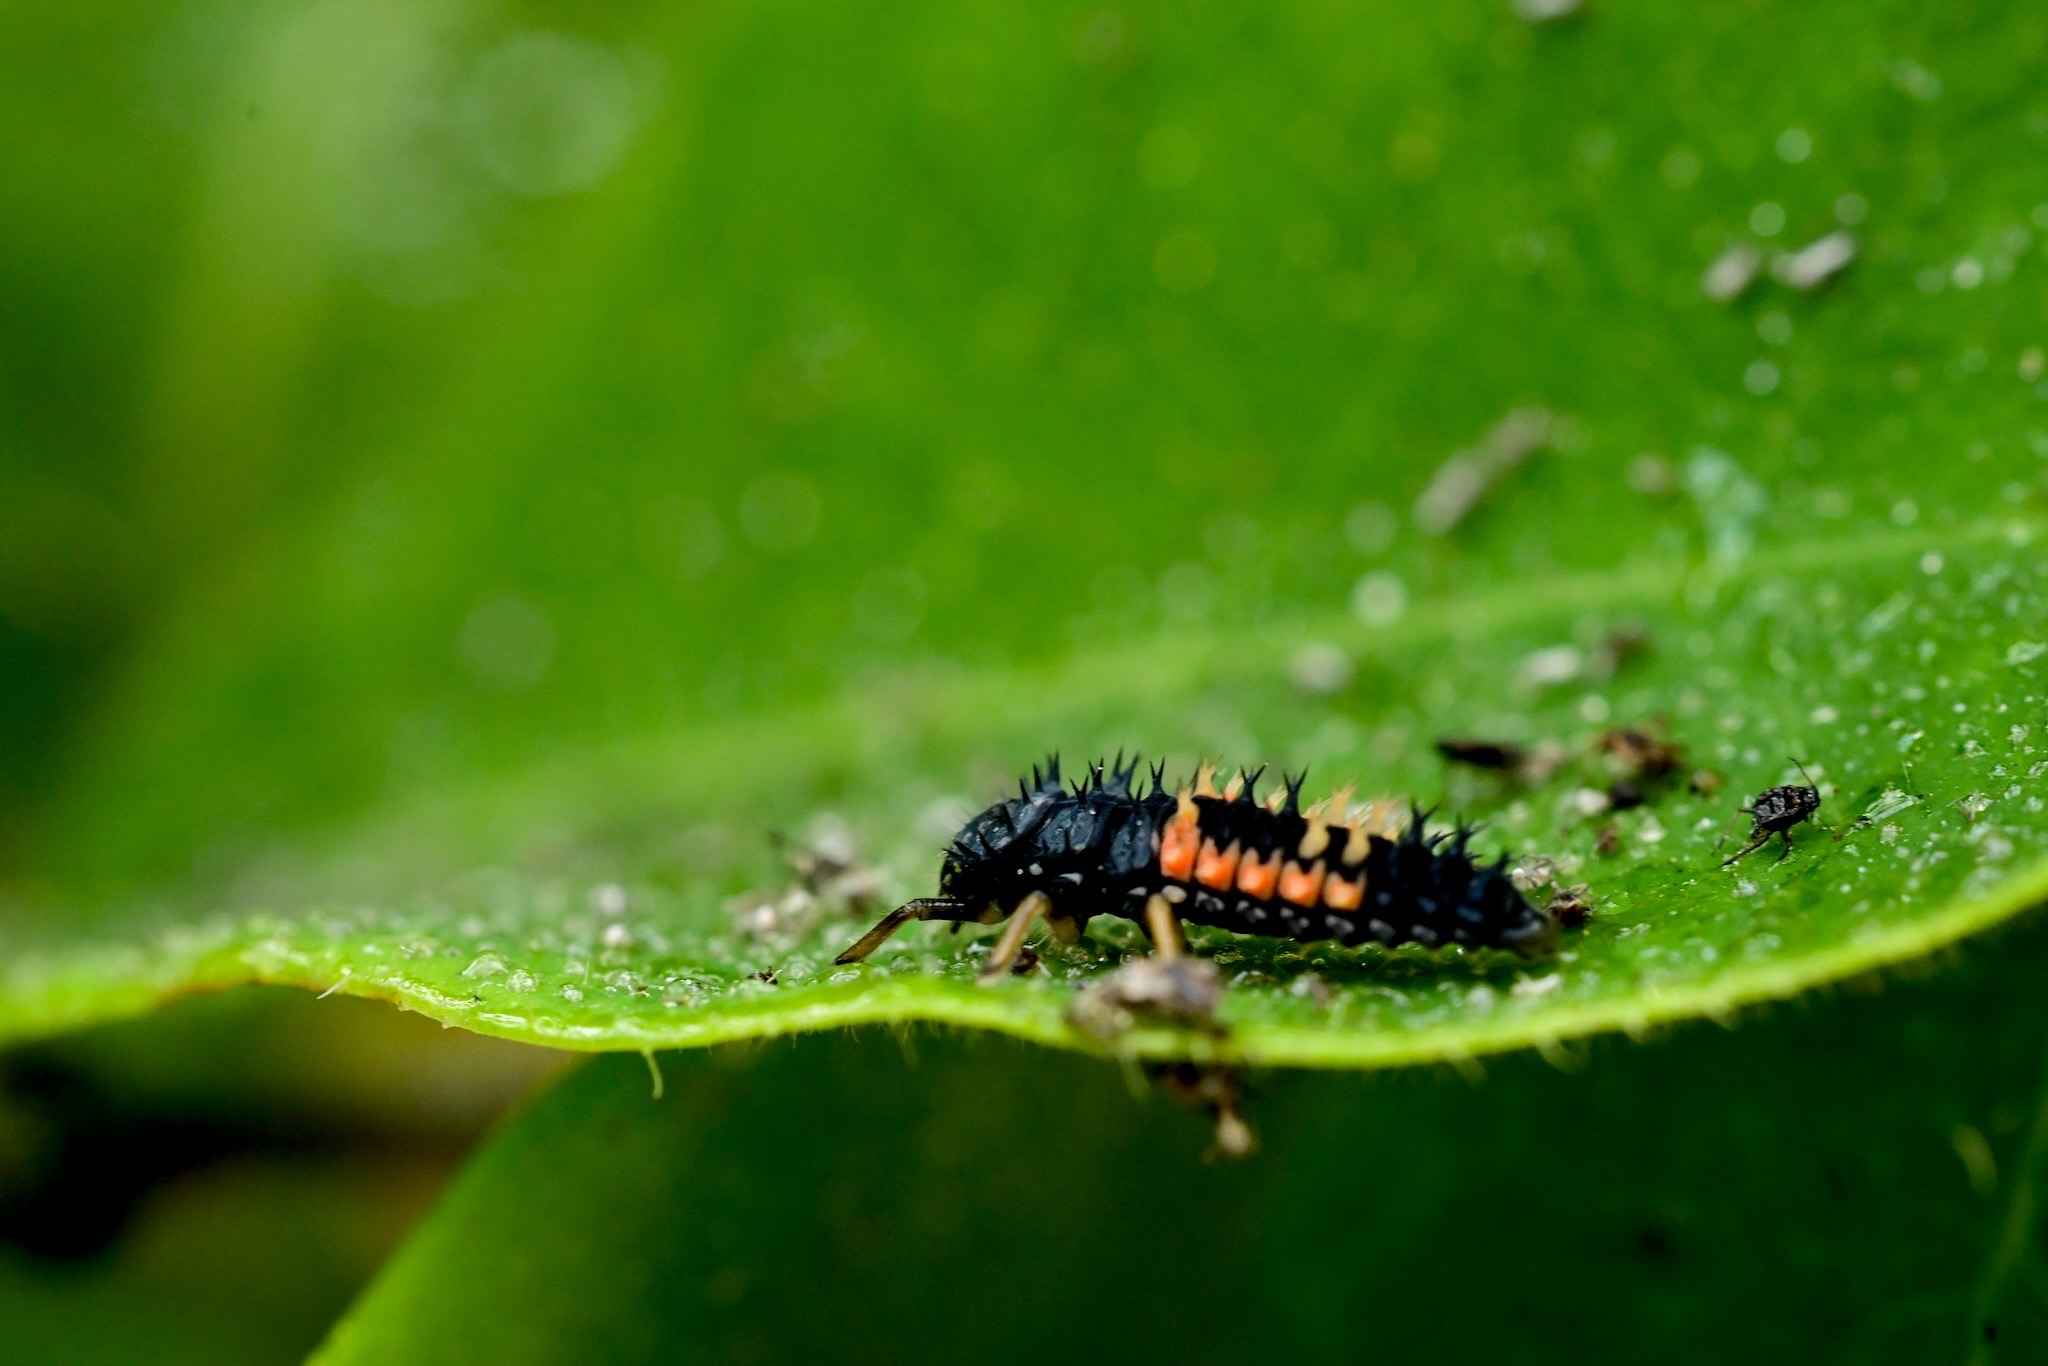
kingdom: Animalia
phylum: Arthropoda
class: Insecta
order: Coleoptera
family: Coccinellidae
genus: Harmonia
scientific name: Harmonia axyridis
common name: Harlekinmariehøne
